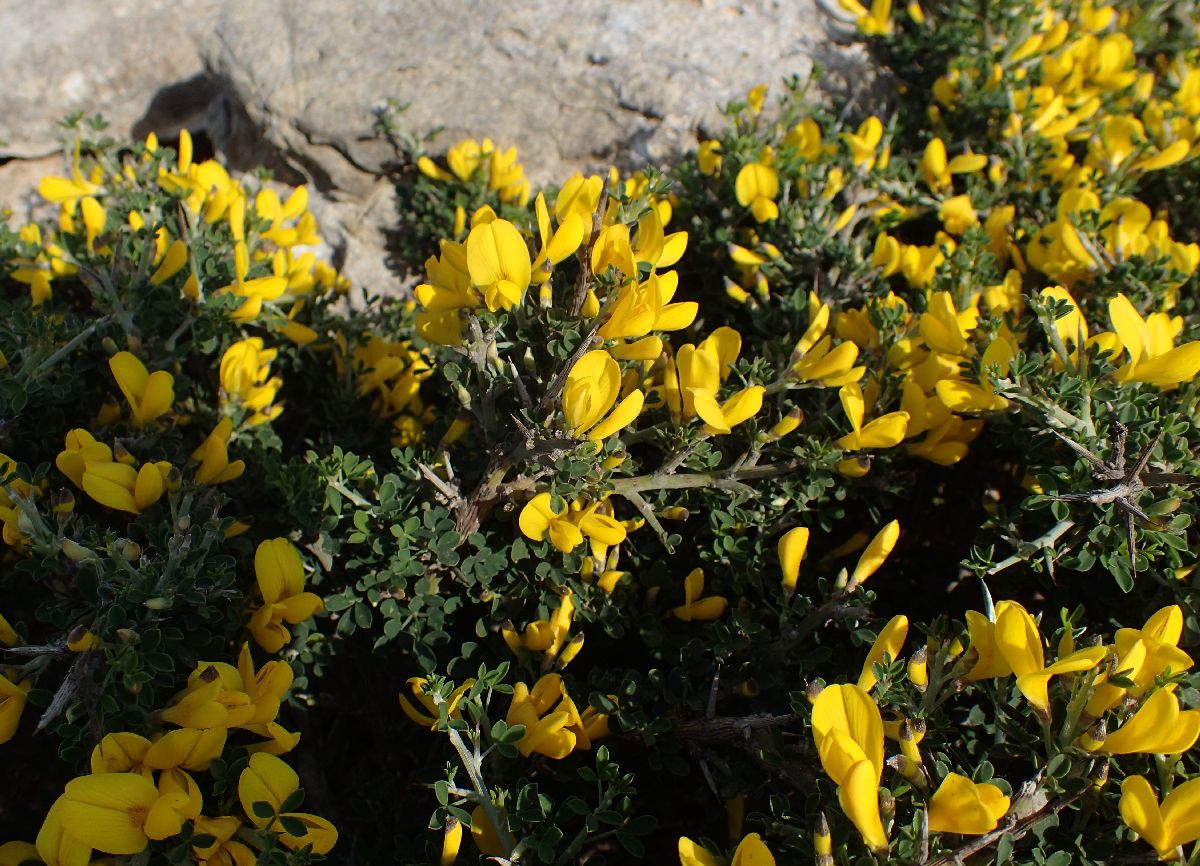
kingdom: Plantae
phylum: Tracheophyta
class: Magnoliopsida
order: Fabales
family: Fabaceae
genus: Calicotome
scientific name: Calicotome villosa
